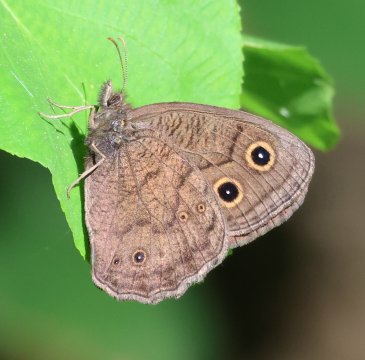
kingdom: Animalia
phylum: Arthropoda
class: Insecta
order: Lepidoptera
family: Nymphalidae
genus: Cercyonis
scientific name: Cercyonis pegala
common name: Common Wood-Nymph
